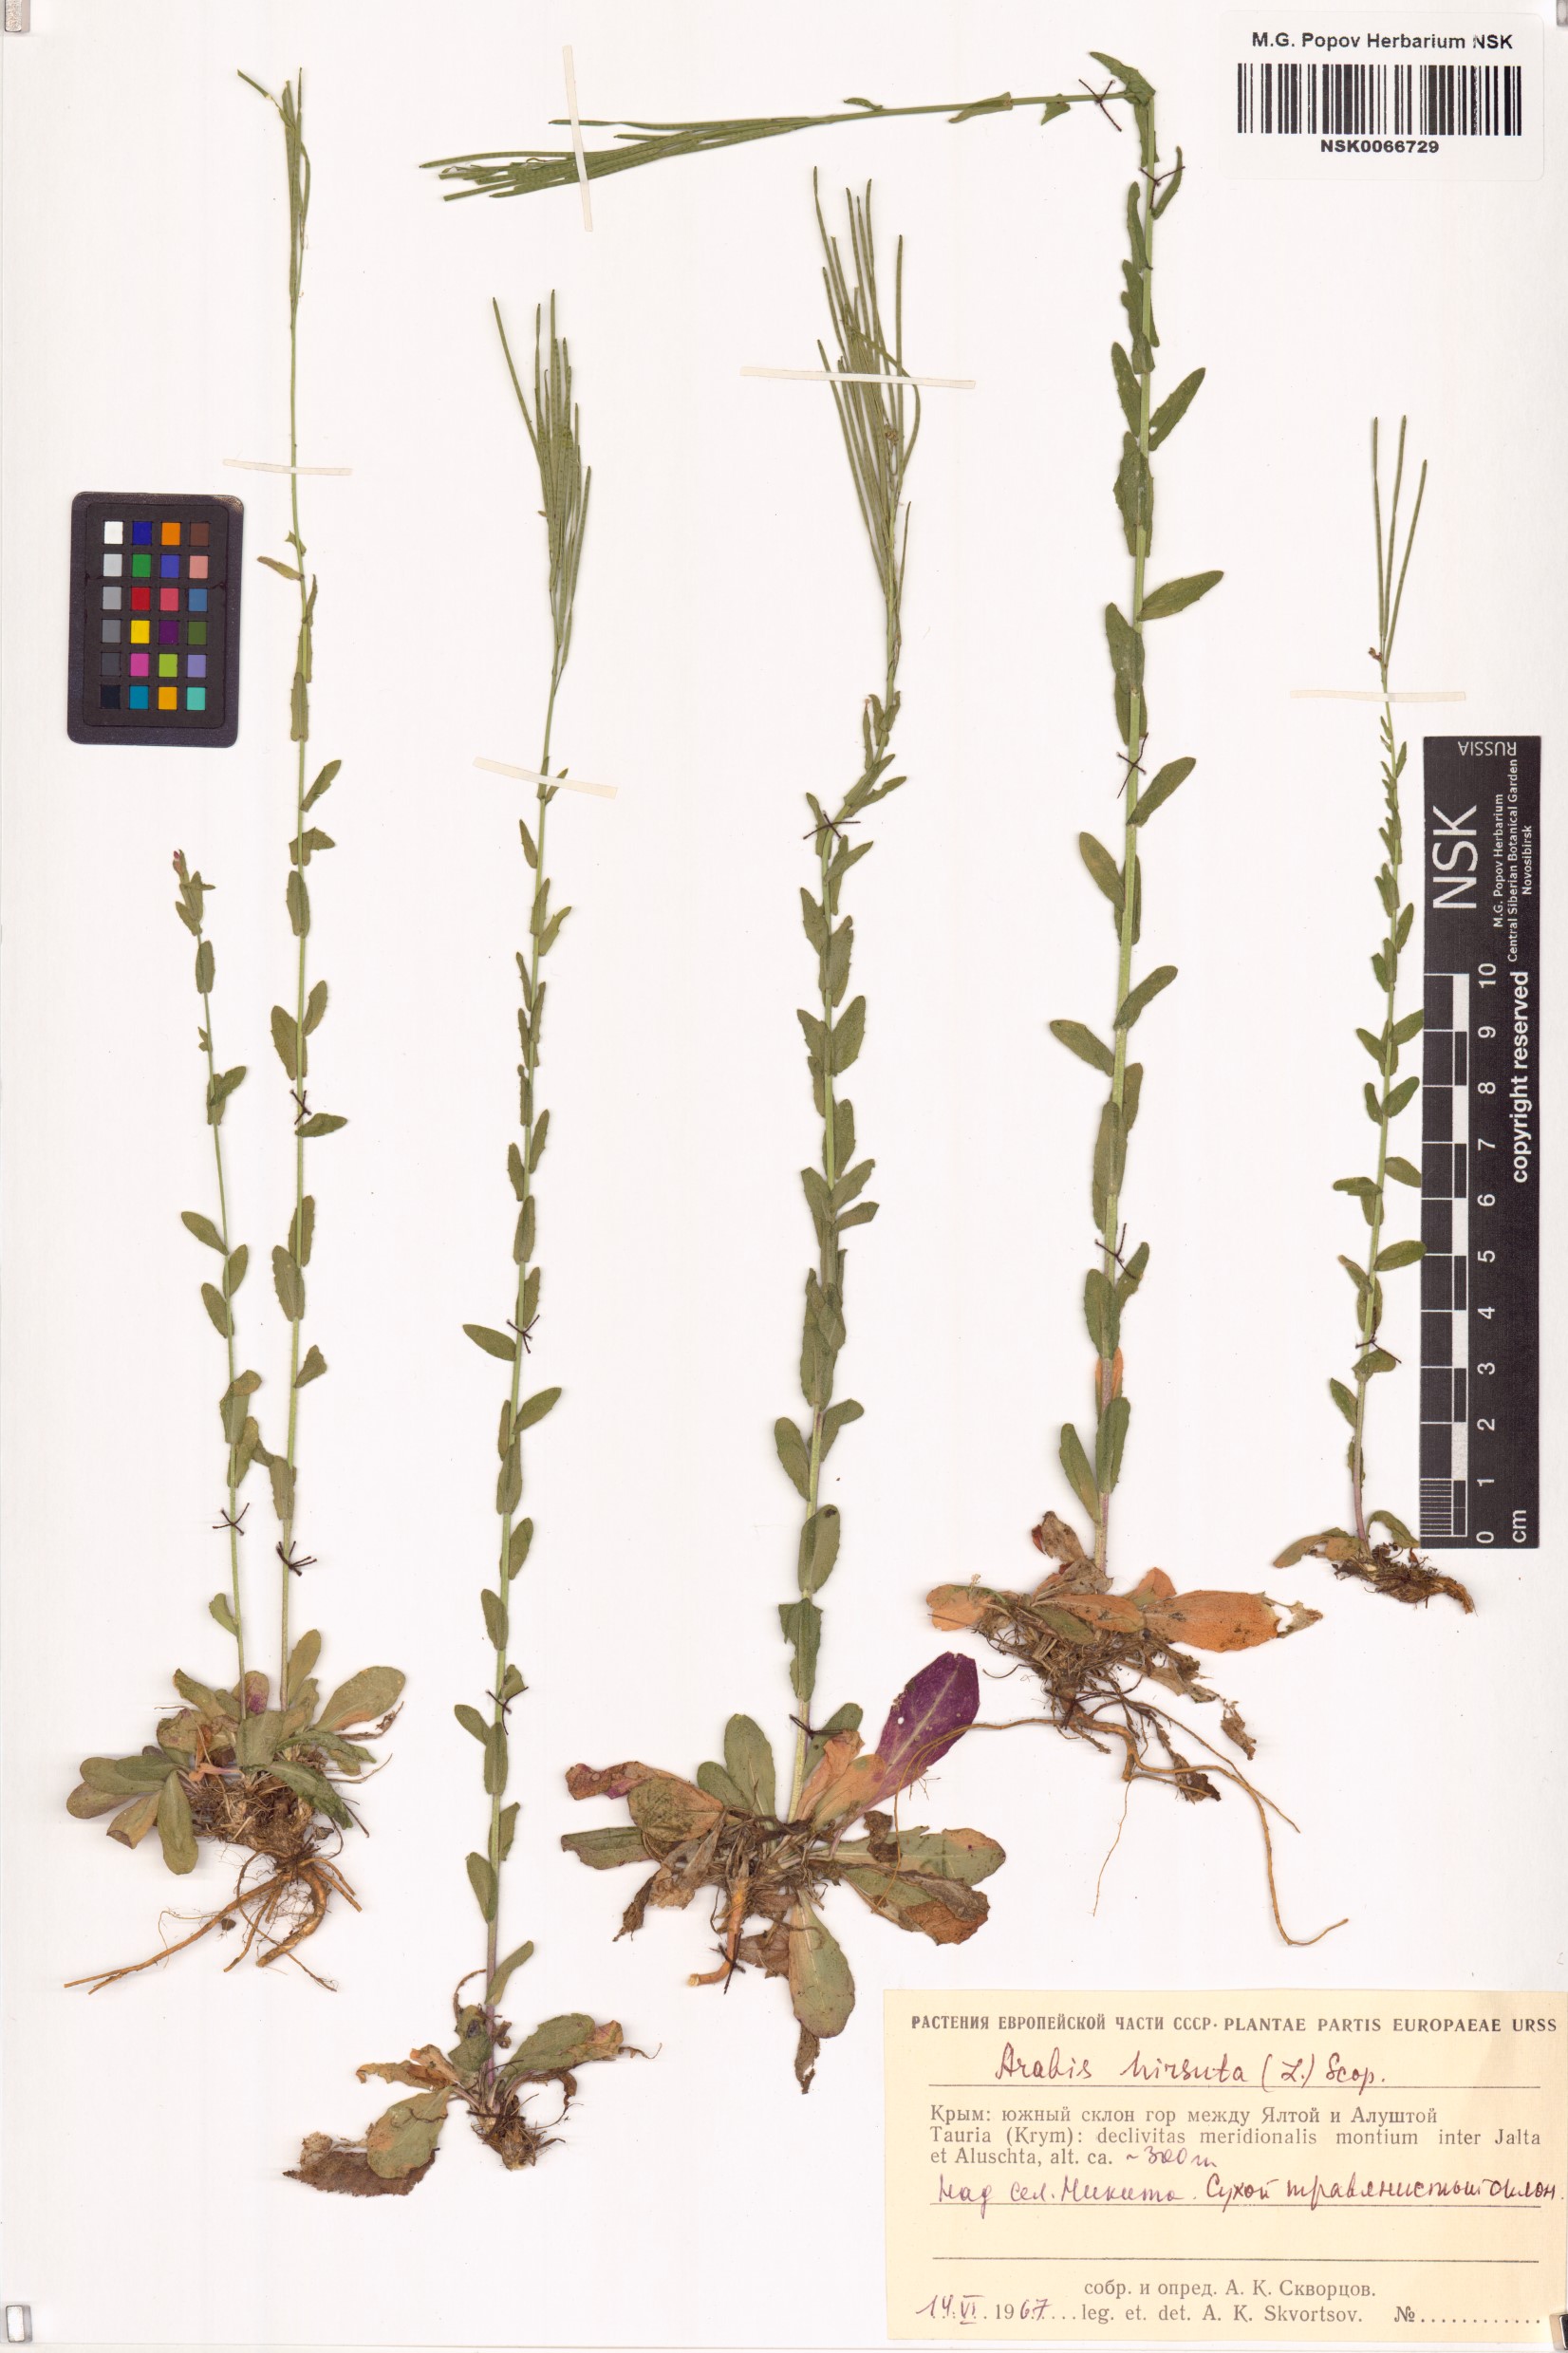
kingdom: Plantae
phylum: Tracheophyta
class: Magnoliopsida
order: Brassicales
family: Brassicaceae
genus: Arabis
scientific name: Arabis hirsuta
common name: Hairy rock-cress
